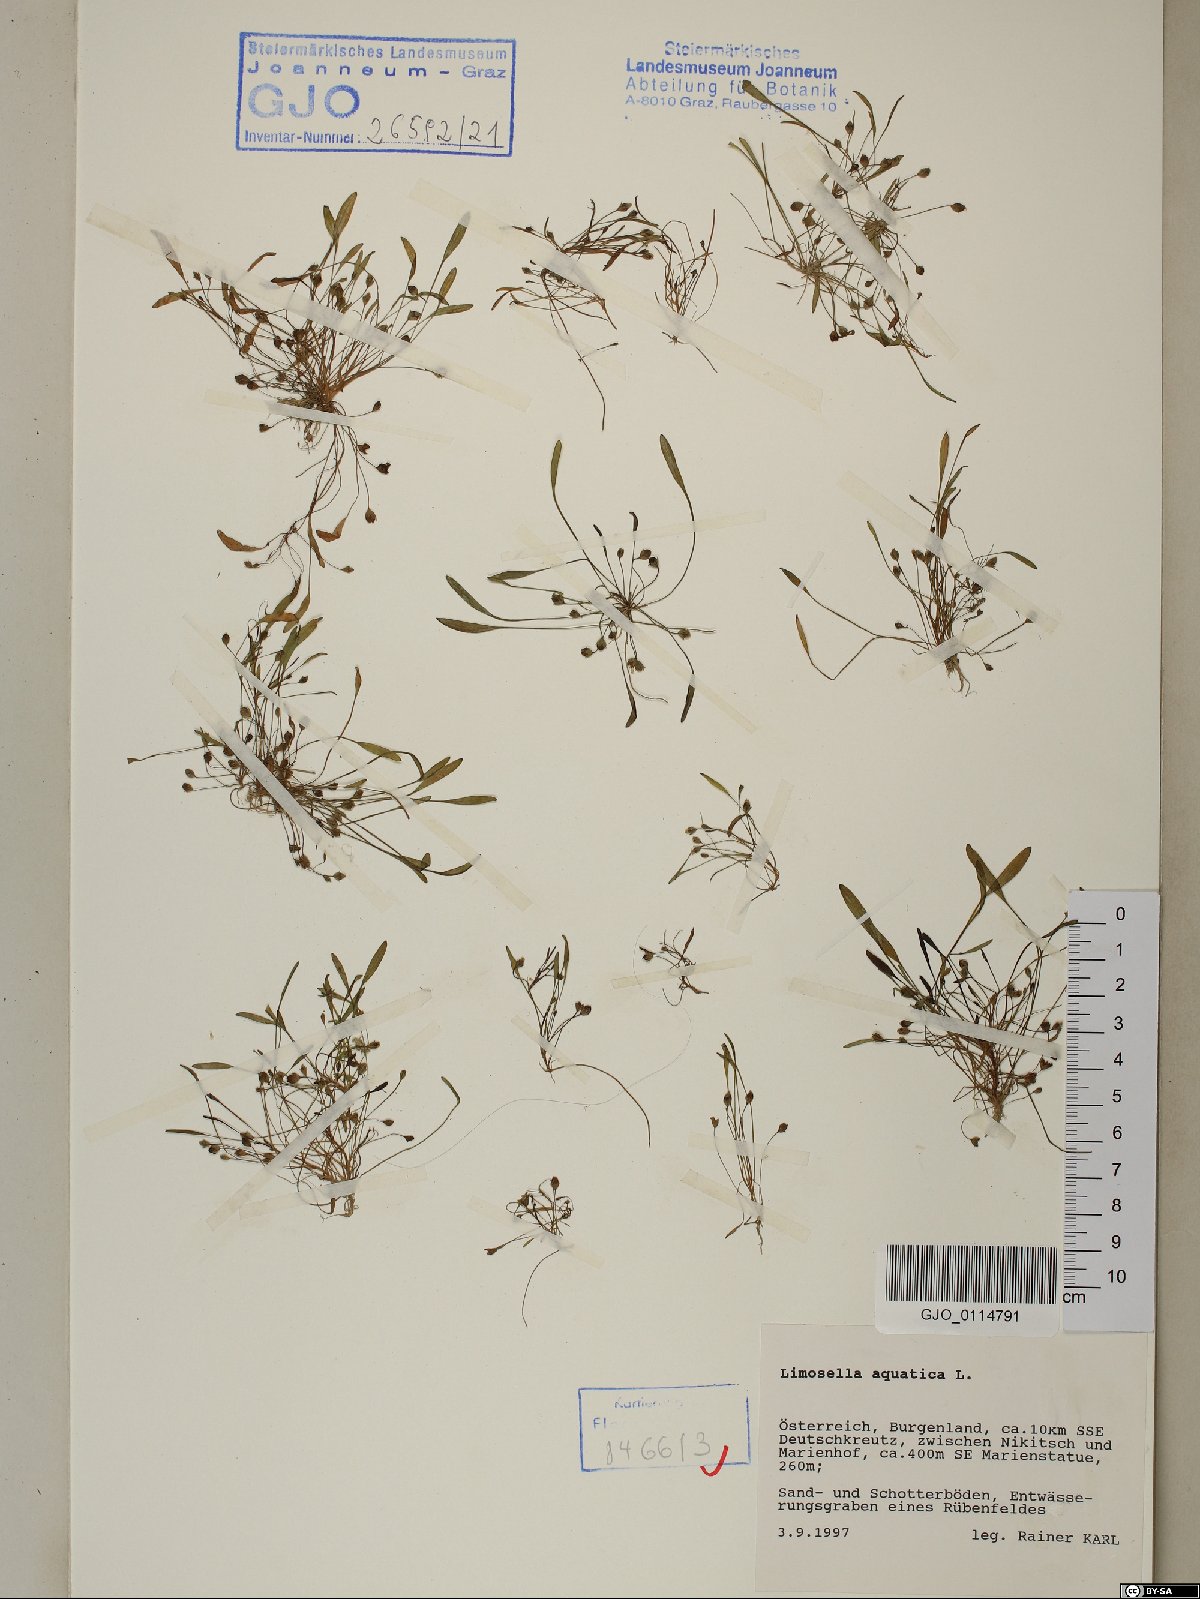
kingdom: Plantae
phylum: Tracheophyta
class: Magnoliopsida
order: Lamiales
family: Scrophulariaceae
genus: Limosella
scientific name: Limosella aquatica
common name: Mudwort
